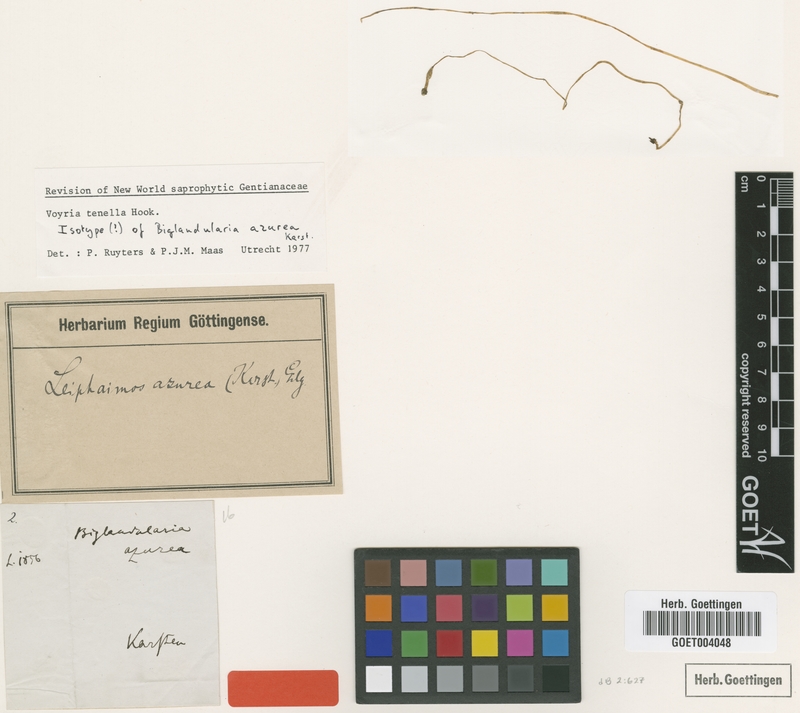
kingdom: Plantae
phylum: Tracheophyta
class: Magnoliopsida
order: Gentianales
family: Gentianaceae
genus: Voyria
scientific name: Voyria tenella
